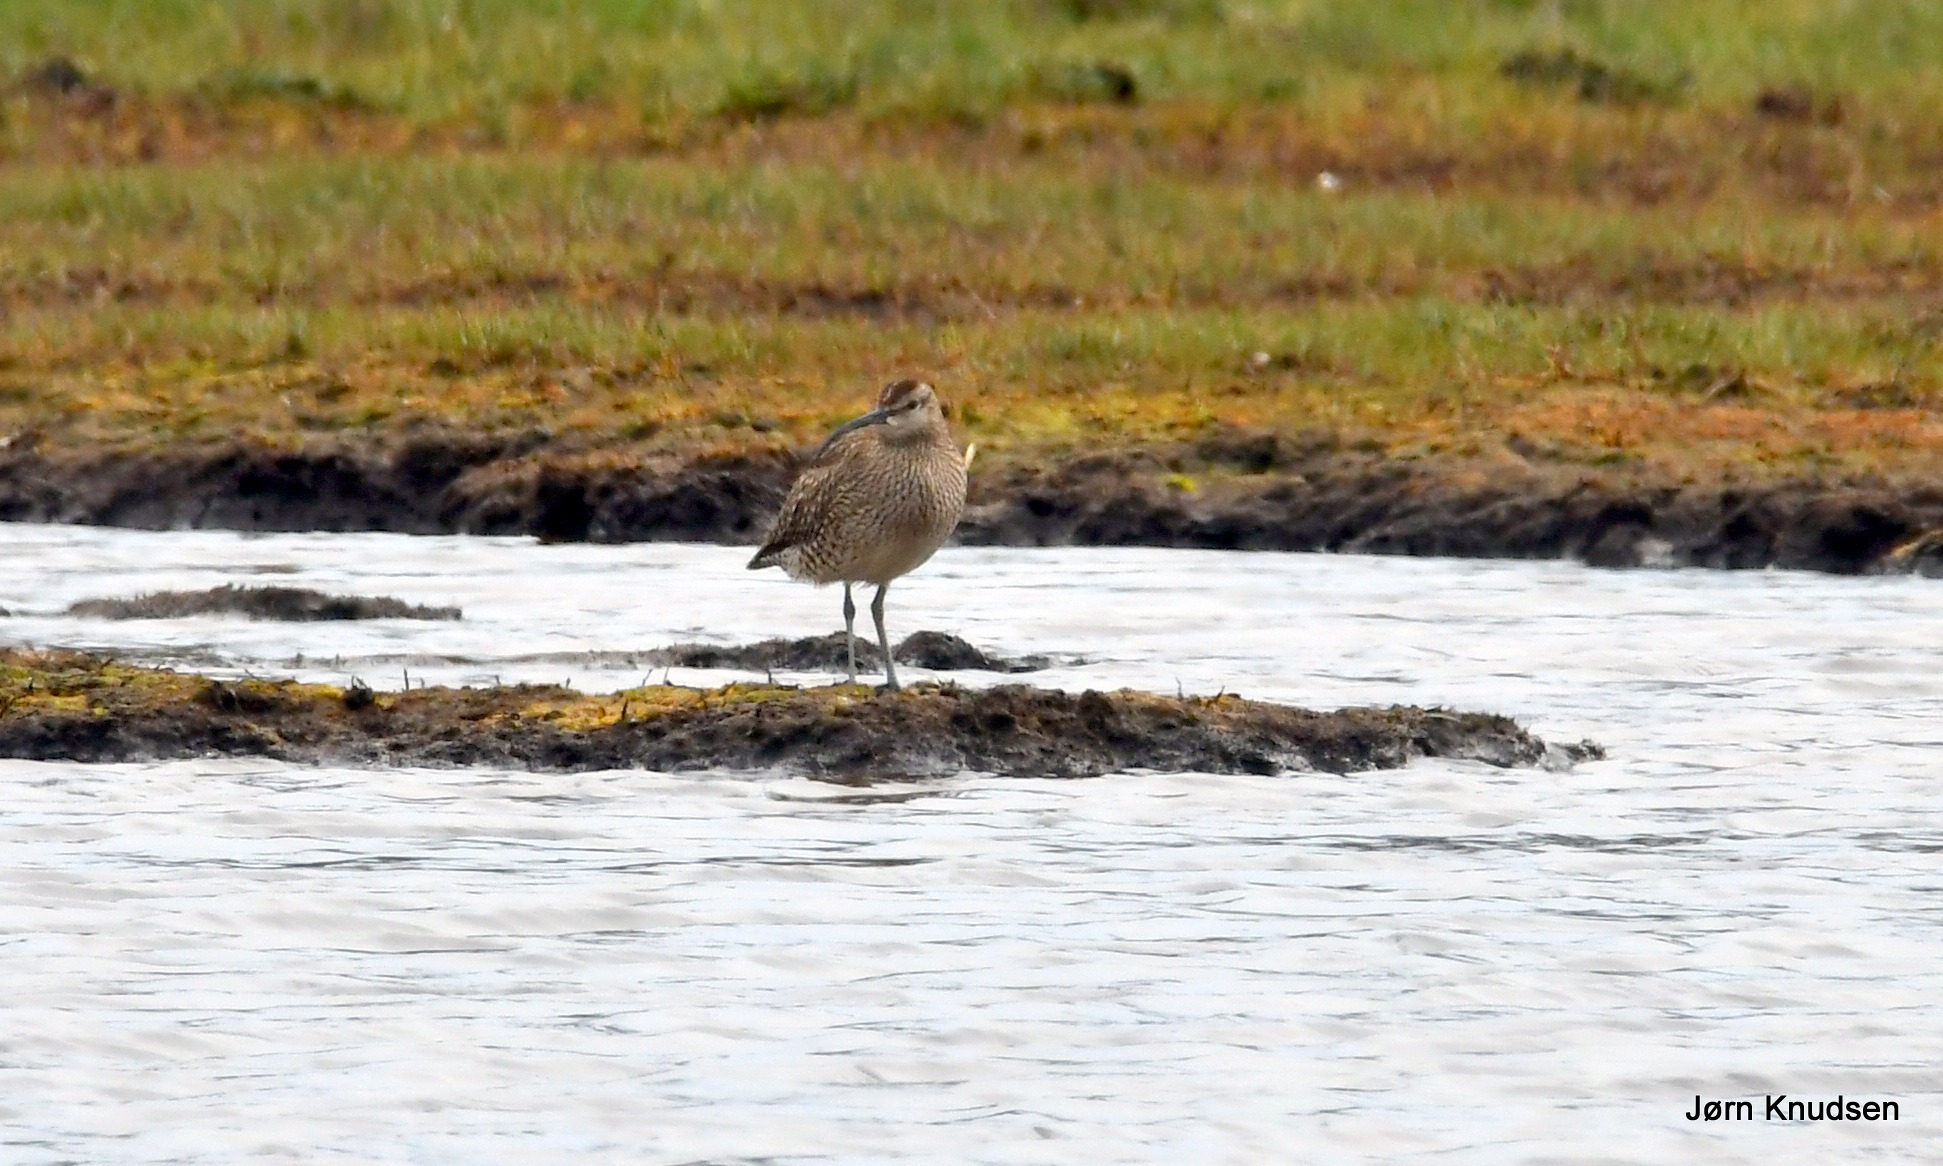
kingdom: Animalia
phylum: Chordata
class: Aves
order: Charadriiformes
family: Scolopacidae
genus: Numenius
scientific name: Numenius phaeopus
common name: Småspove
